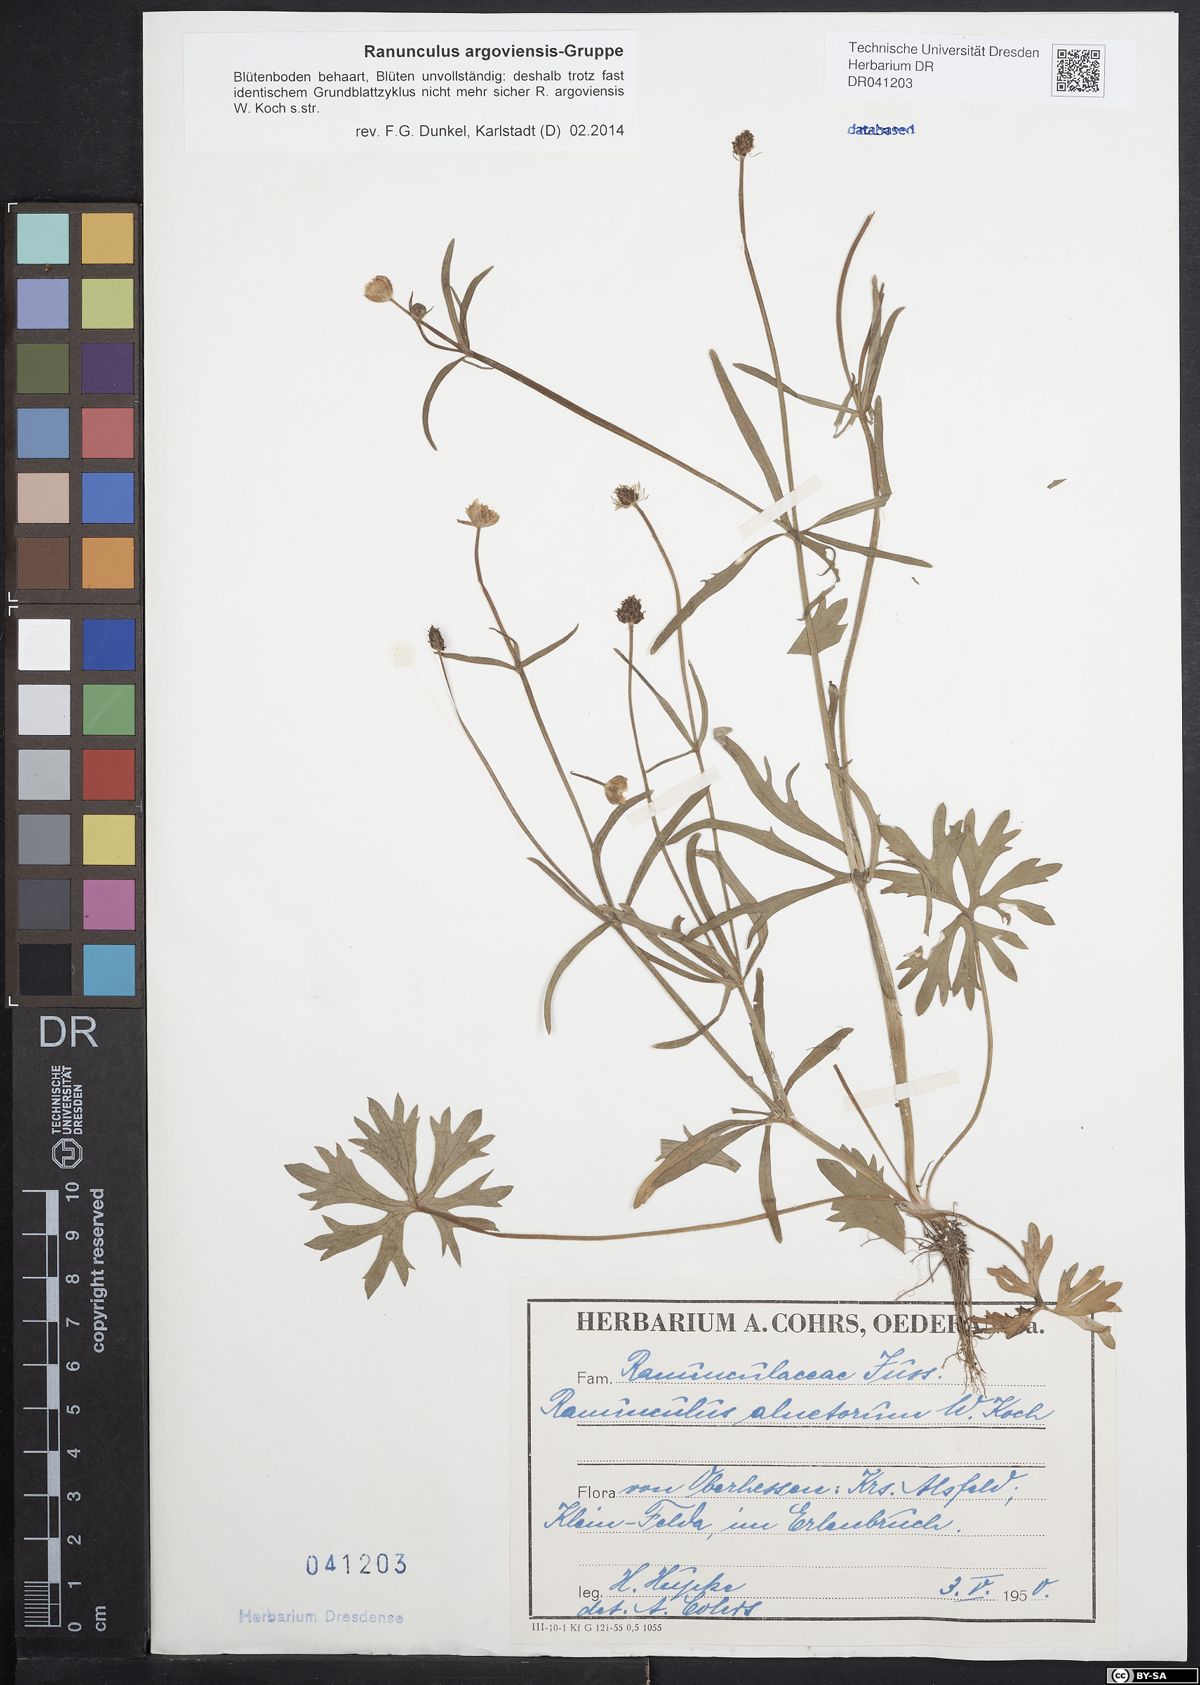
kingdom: Plantae
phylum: Tracheophyta
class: Magnoliopsida
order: Ranunculales
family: Ranunculaceae
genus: Ranunculus
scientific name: Ranunculus argoviensis
